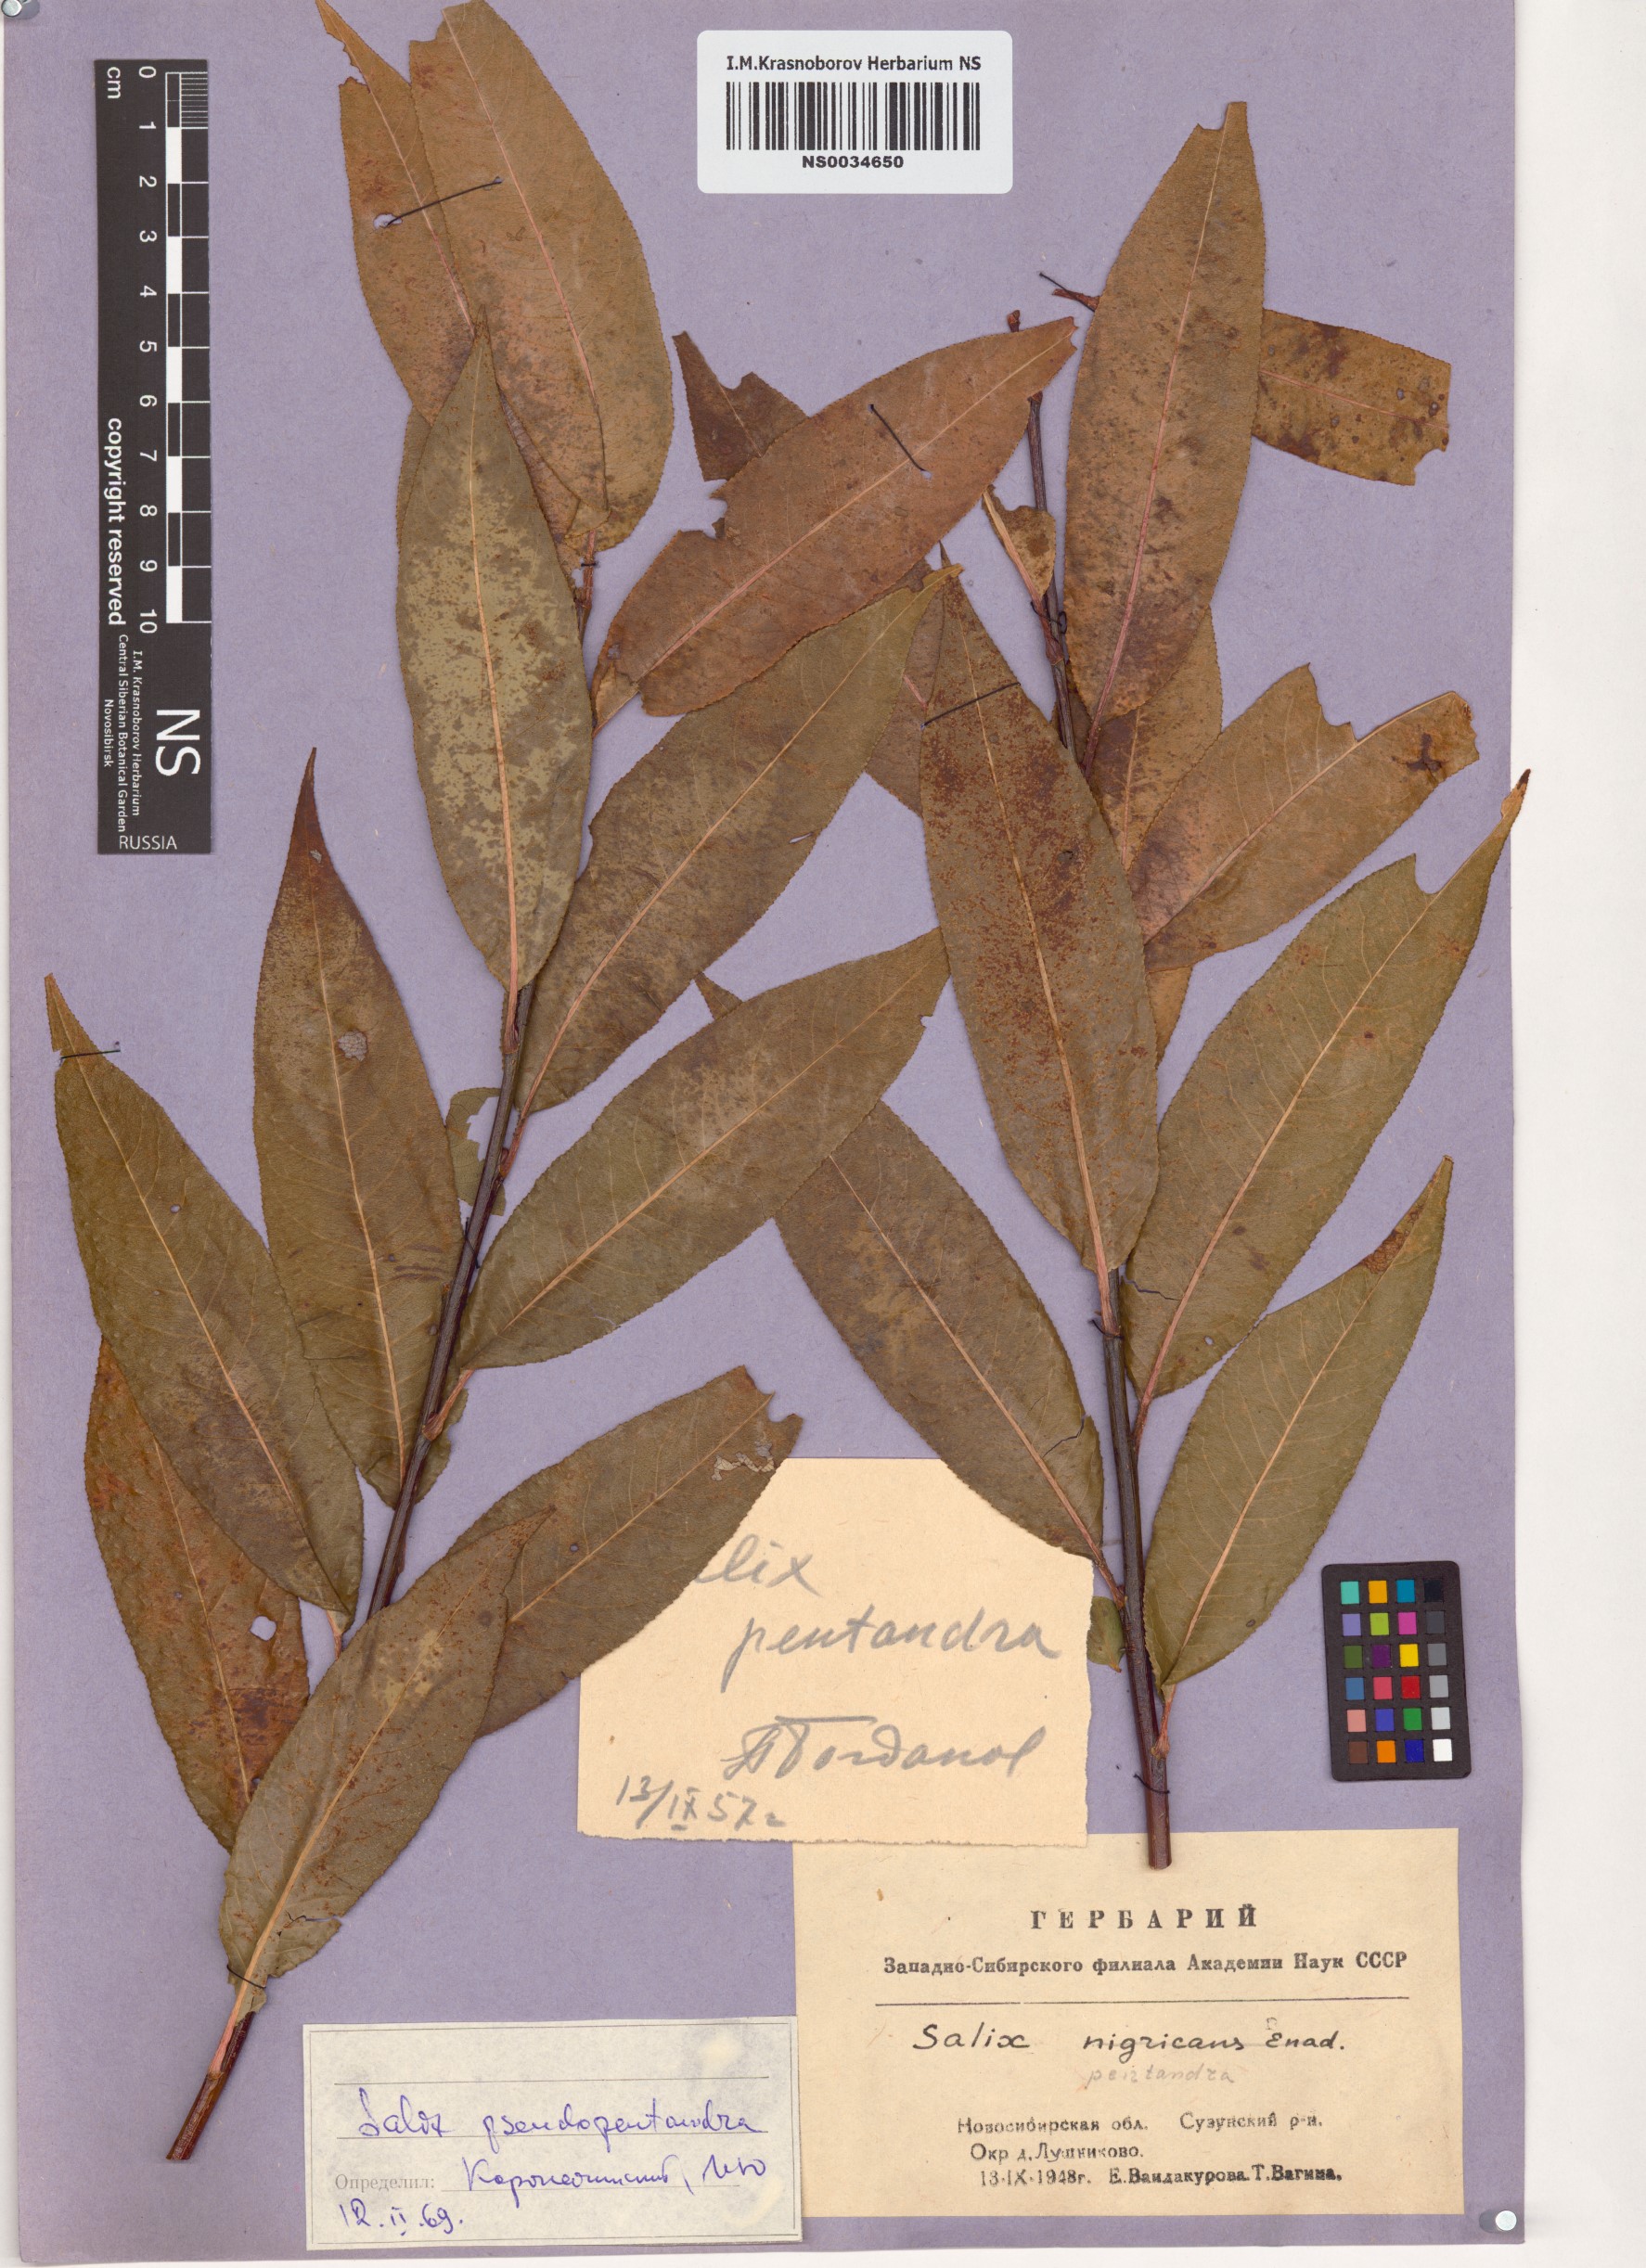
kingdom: Plantae
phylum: Tracheophyta
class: Magnoliopsida
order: Malpighiales
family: Salicaceae
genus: Salix
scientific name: Salix pentandra
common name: Bay willow
